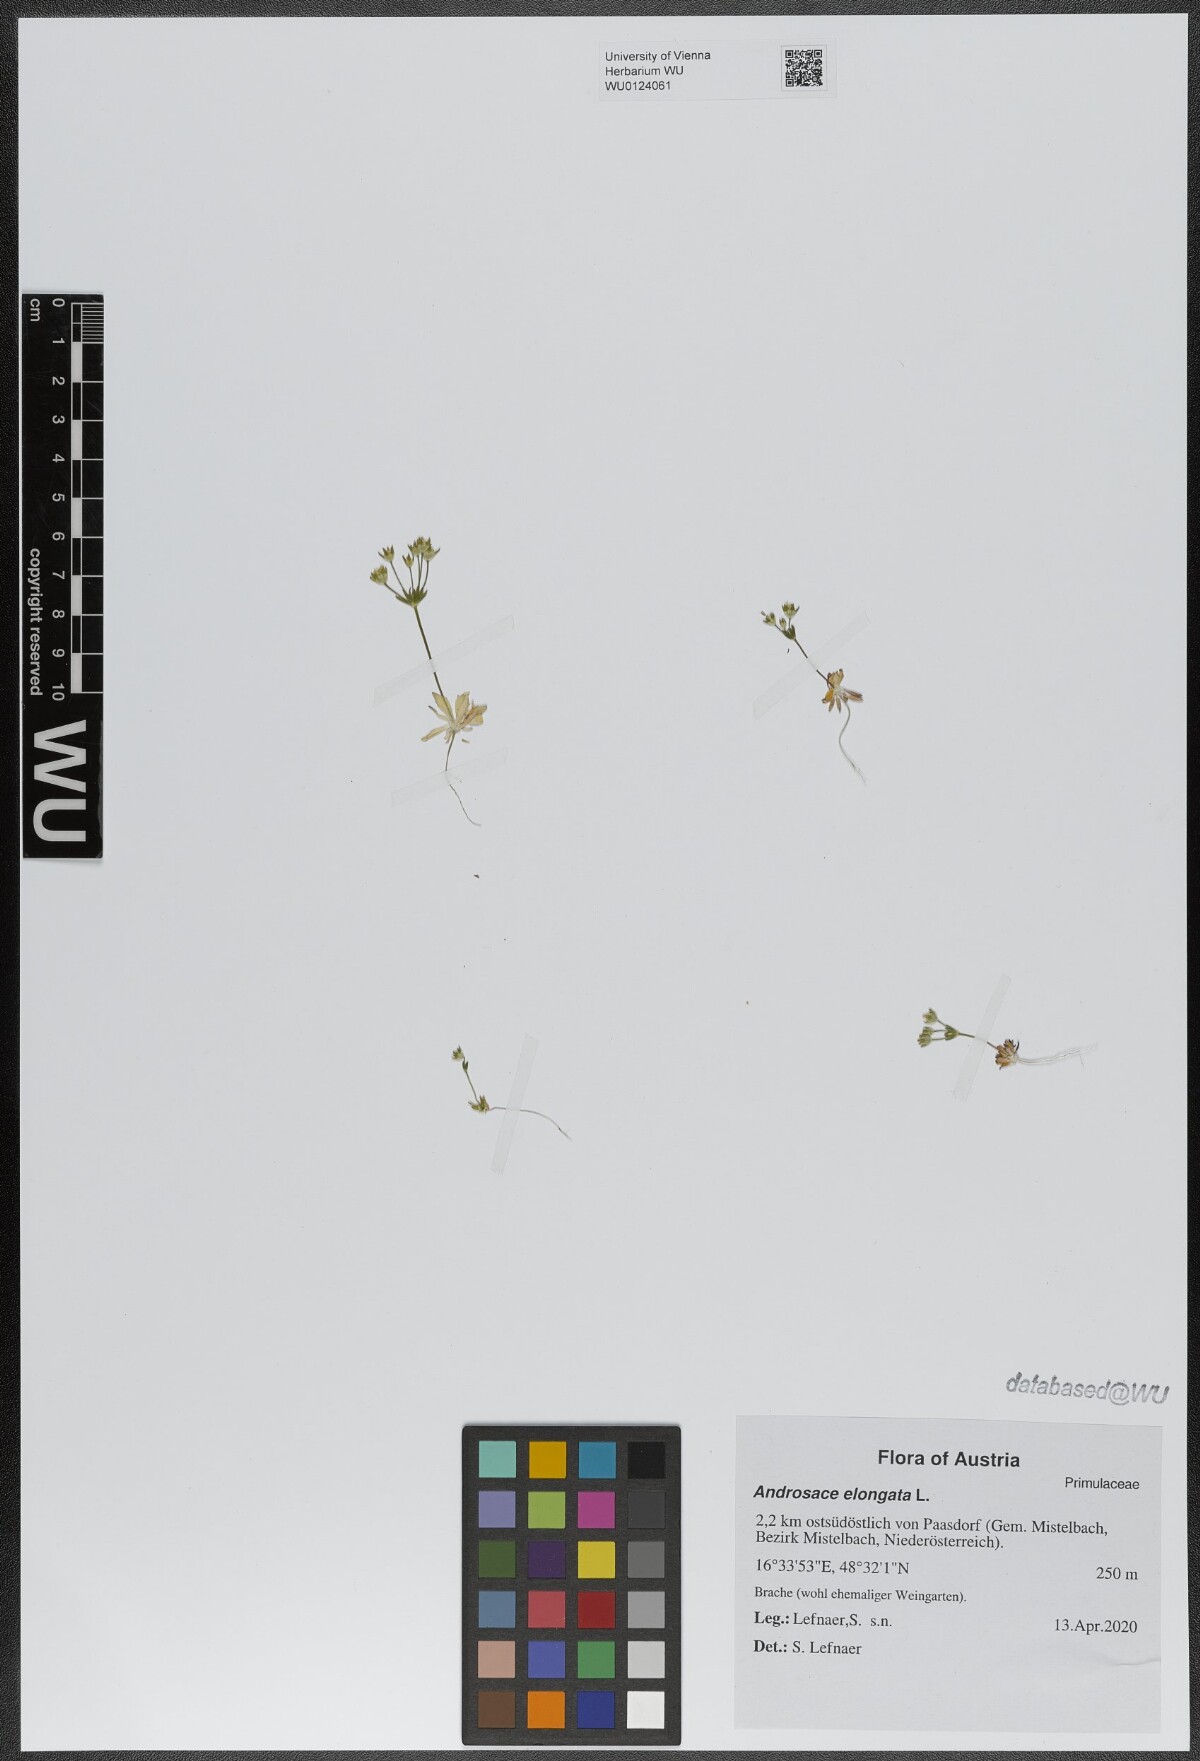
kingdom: Plantae
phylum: Tracheophyta
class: Magnoliopsida
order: Ericales
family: Primulaceae
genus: Androsace
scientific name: Androsace elongata
